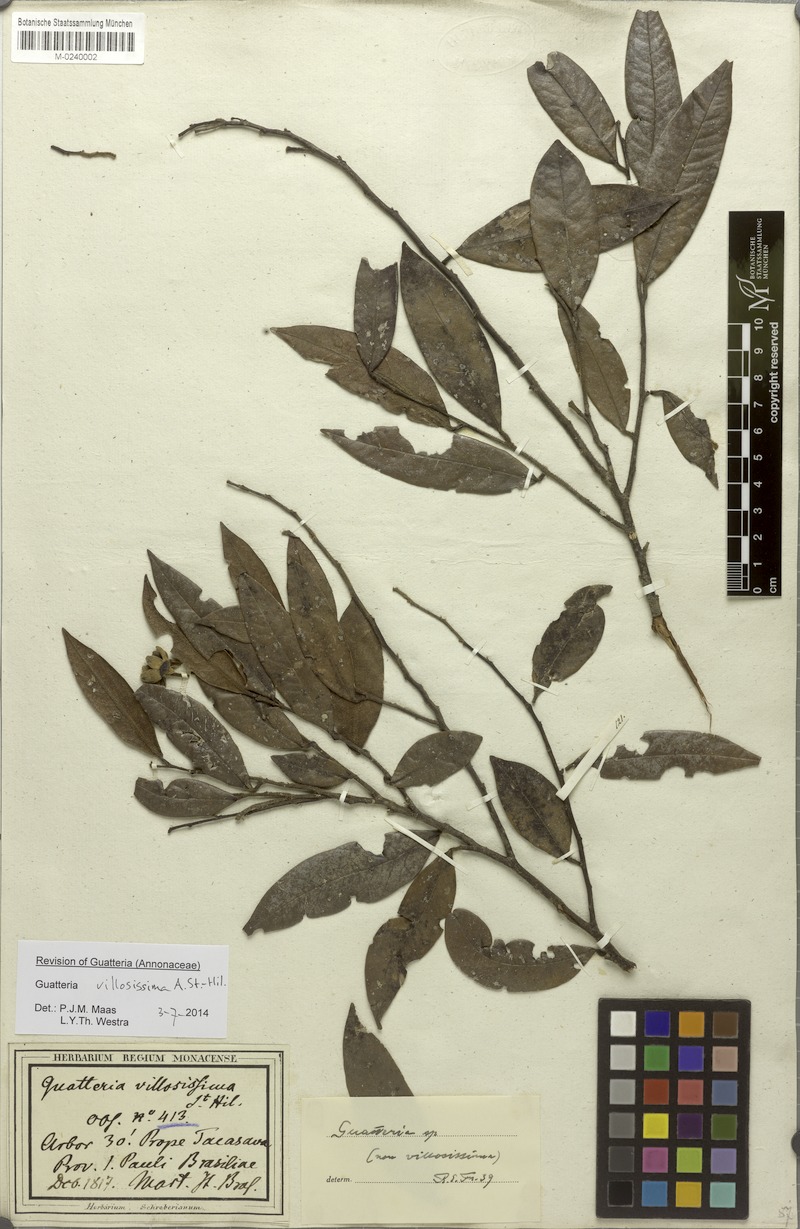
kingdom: Plantae
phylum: Tracheophyta
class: Magnoliopsida
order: Magnoliales
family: Annonaceae
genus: Guatteria
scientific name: Guatteria villosissima
